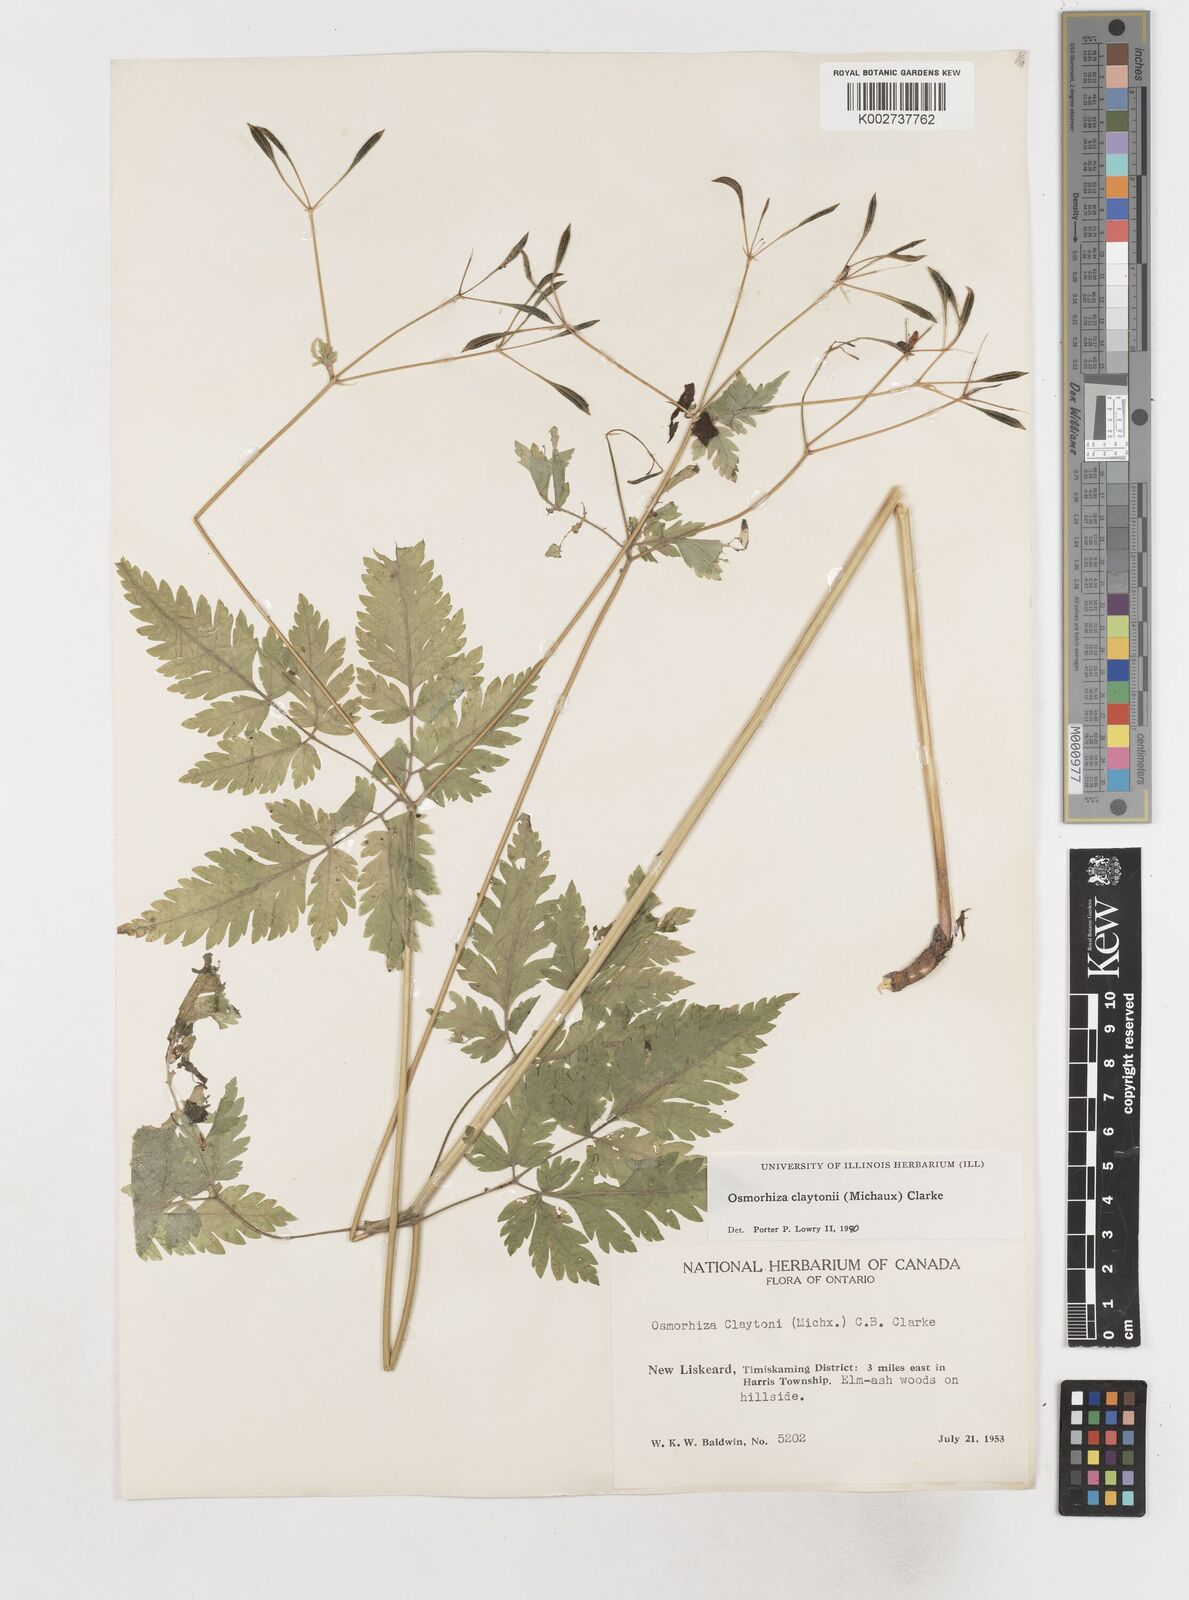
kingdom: Plantae
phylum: Tracheophyta
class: Magnoliopsida
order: Apiales
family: Apiaceae
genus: Osmorhiza
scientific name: Osmorhiza claytonii
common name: Hairy sweet cicely
